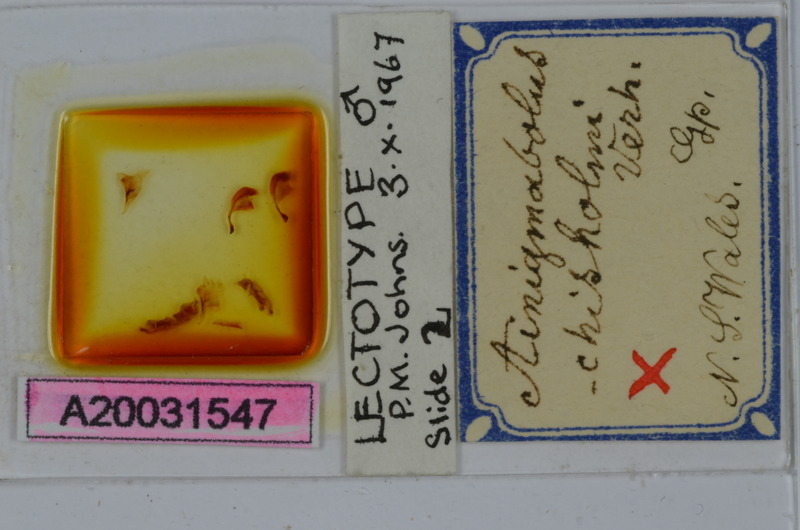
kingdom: Animalia
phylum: Arthropoda
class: Diplopoda
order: Spirobolida
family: Pachybolidae
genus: Ainigmabolus
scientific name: Ainigmabolus chisholmi
